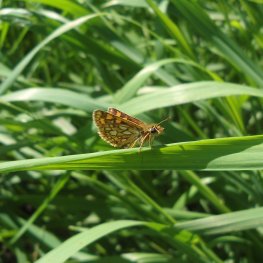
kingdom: Animalia
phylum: Arthropoda
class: Insecta
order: Lepidoptera
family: Hesperiidae
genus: Carterocephalus
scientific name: Carterocephalus palaemon
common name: Chequered Skipper
